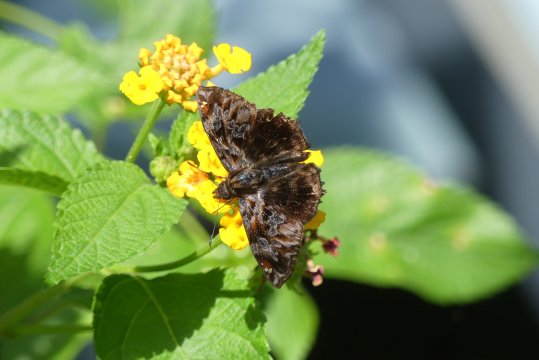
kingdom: Animalia
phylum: Arthropoda
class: Insecta
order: Lepidoptera
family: Hesperiidae
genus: Noctuana
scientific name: Noctuana stator
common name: Red-studded Skipper
